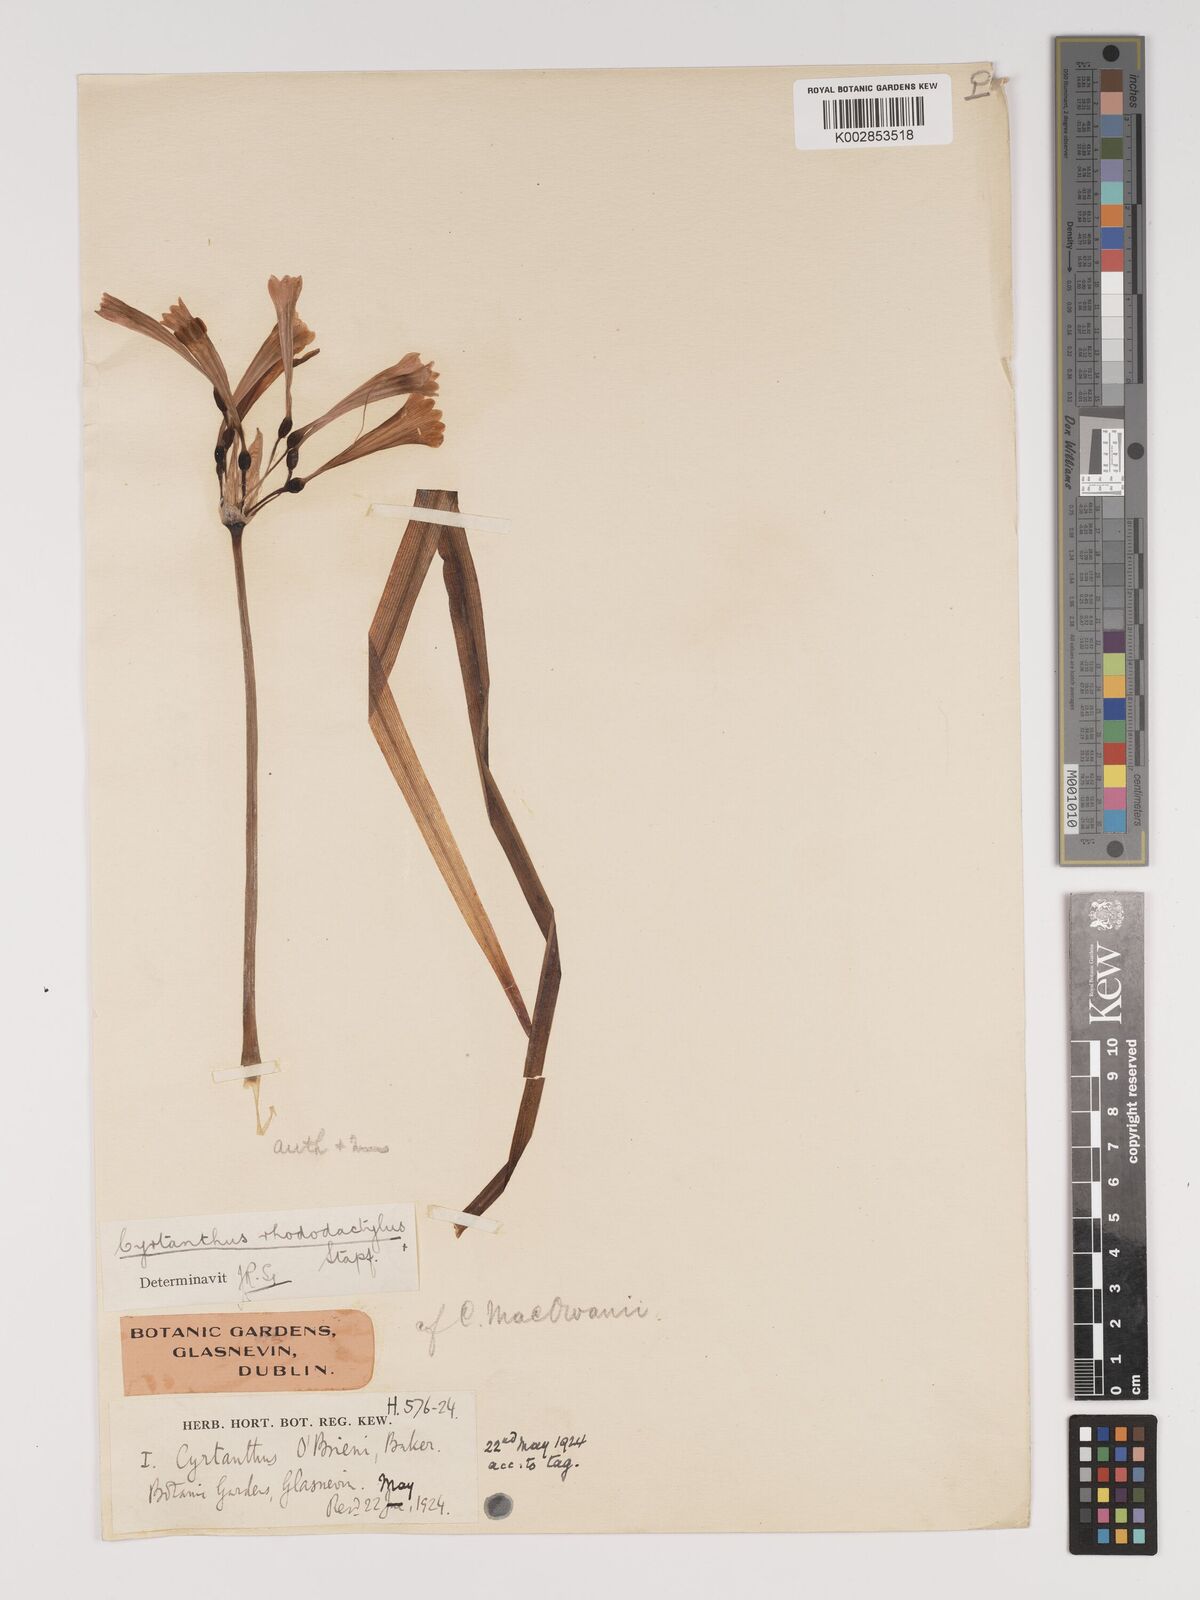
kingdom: Plantae
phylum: Tracheophyta
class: Liliopsida
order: Asparagales
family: Amaryllidaceae
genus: Cyrtanthus
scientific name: Cyrtanthus rhododactylus
